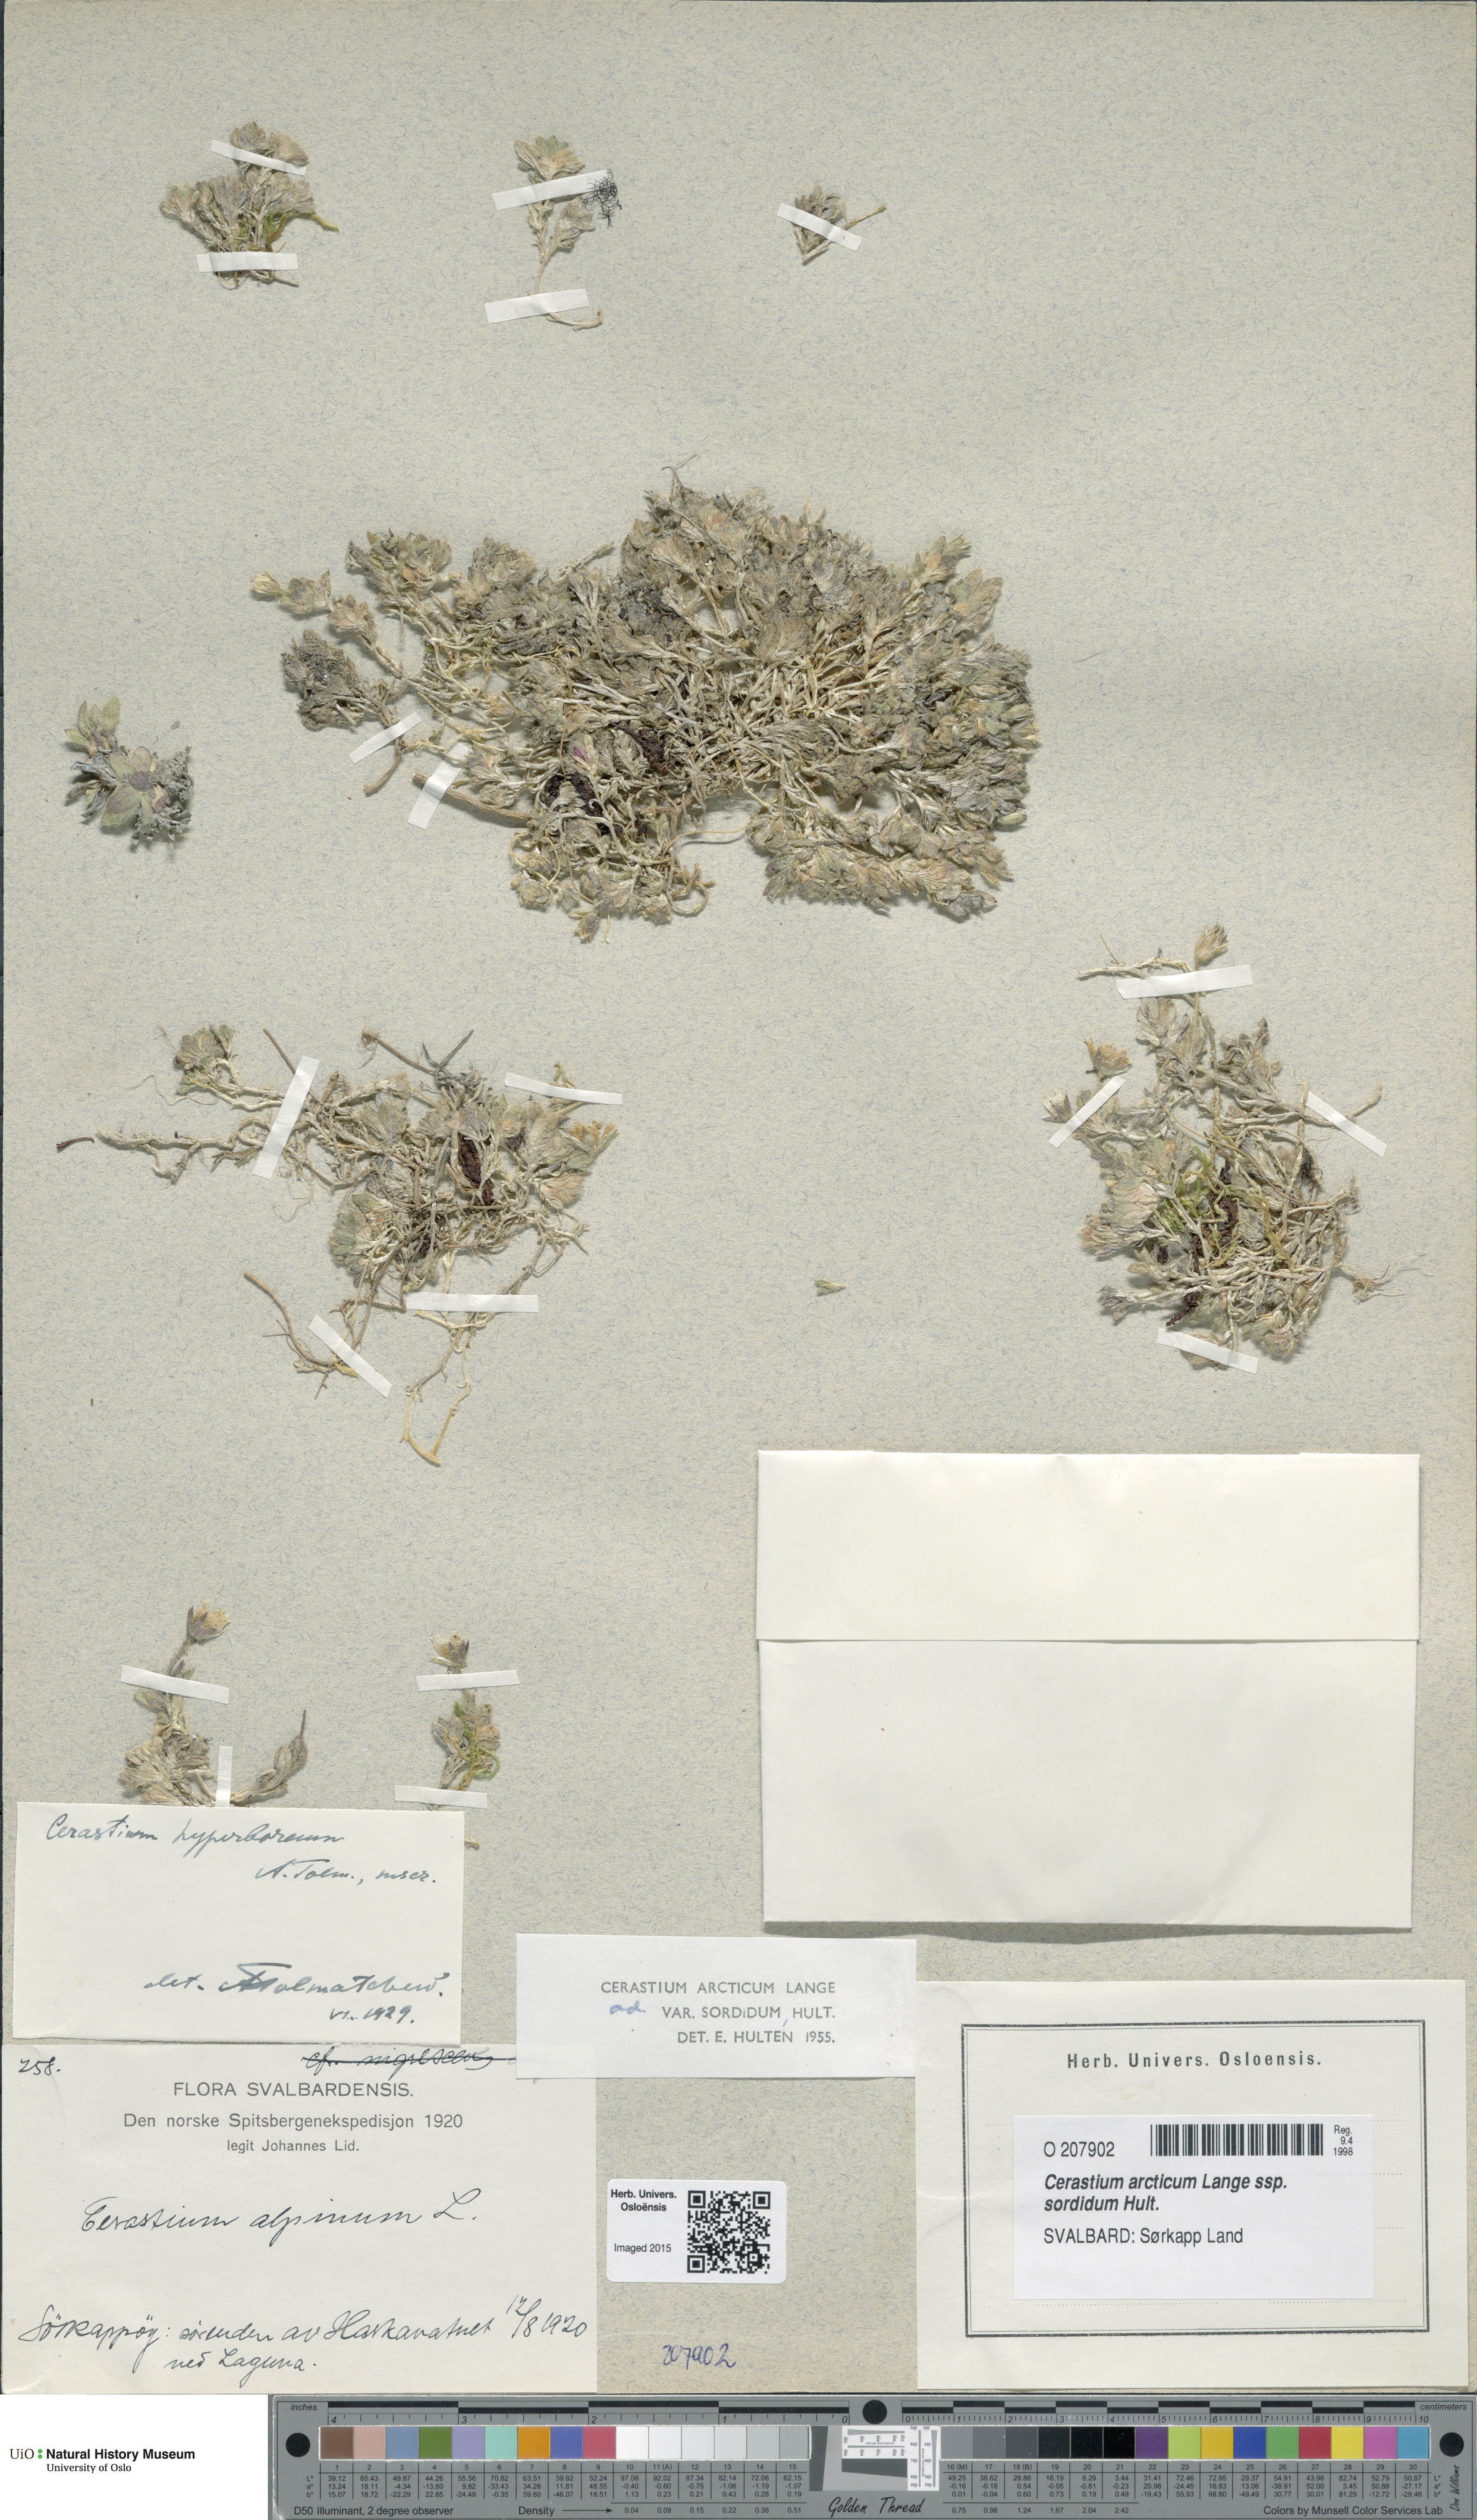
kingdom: Plantae
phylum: Tracheophyta
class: Magnoliopsida
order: Caryophyllales
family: Caryophyllaceae
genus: Cerastium
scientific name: Cerastium sordidum
